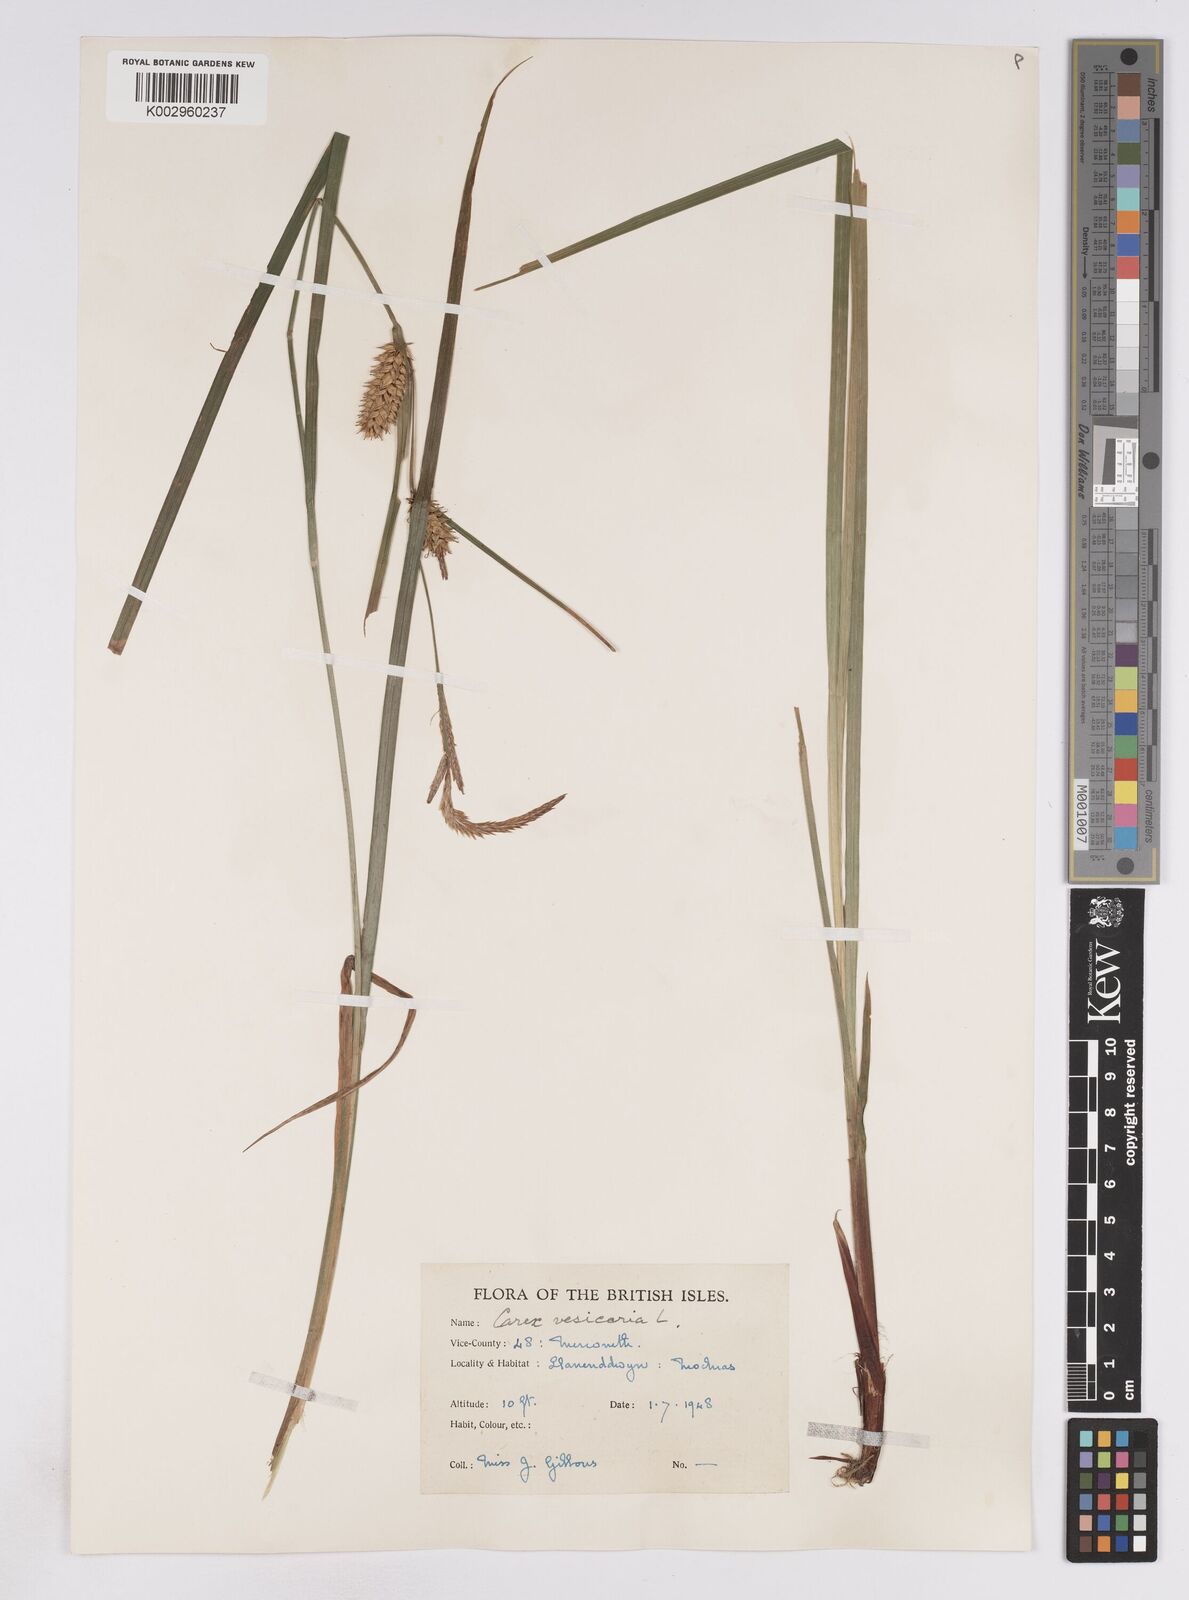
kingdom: Plantae
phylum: Tracheophyta
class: Liliopsida
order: Poales
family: Cyperaceae
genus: Carex
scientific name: Carex vesicaria
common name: Bladder-sedge
